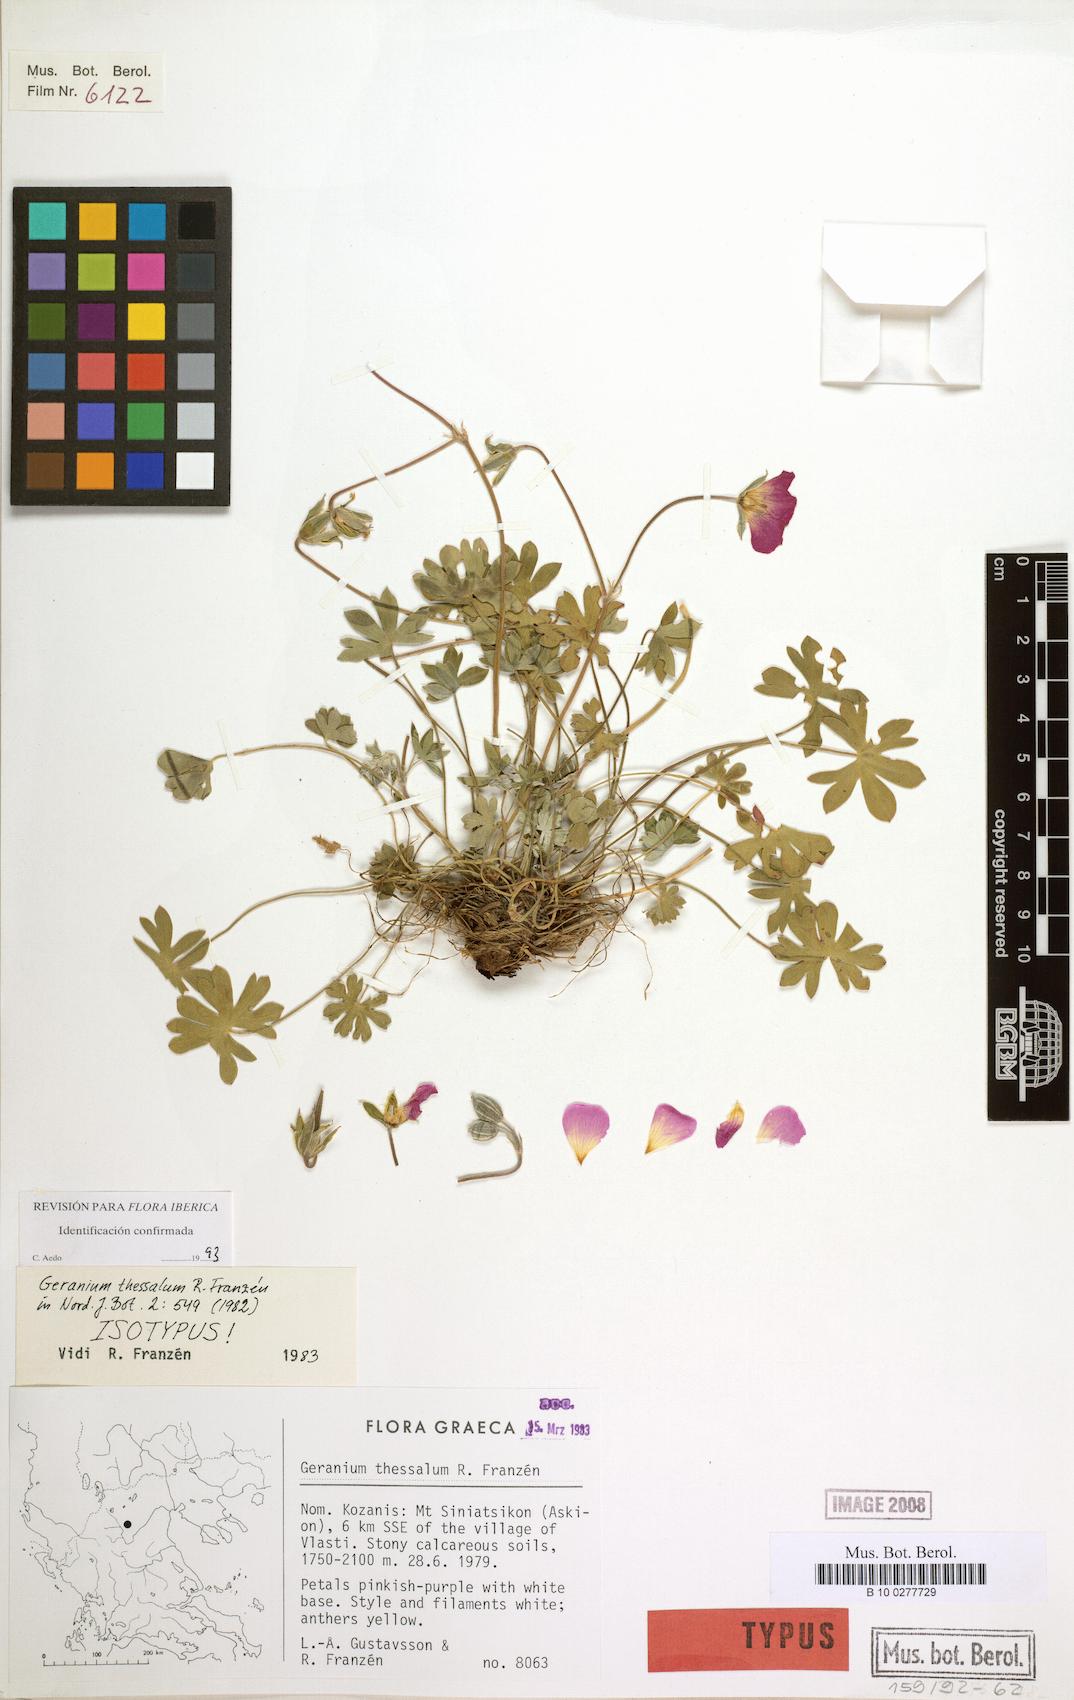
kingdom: Plantae
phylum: Tracheophyta
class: Magnoliopsida
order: Geraniales
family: Geraniaceae
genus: Geranium
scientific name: Geranium thessalum
